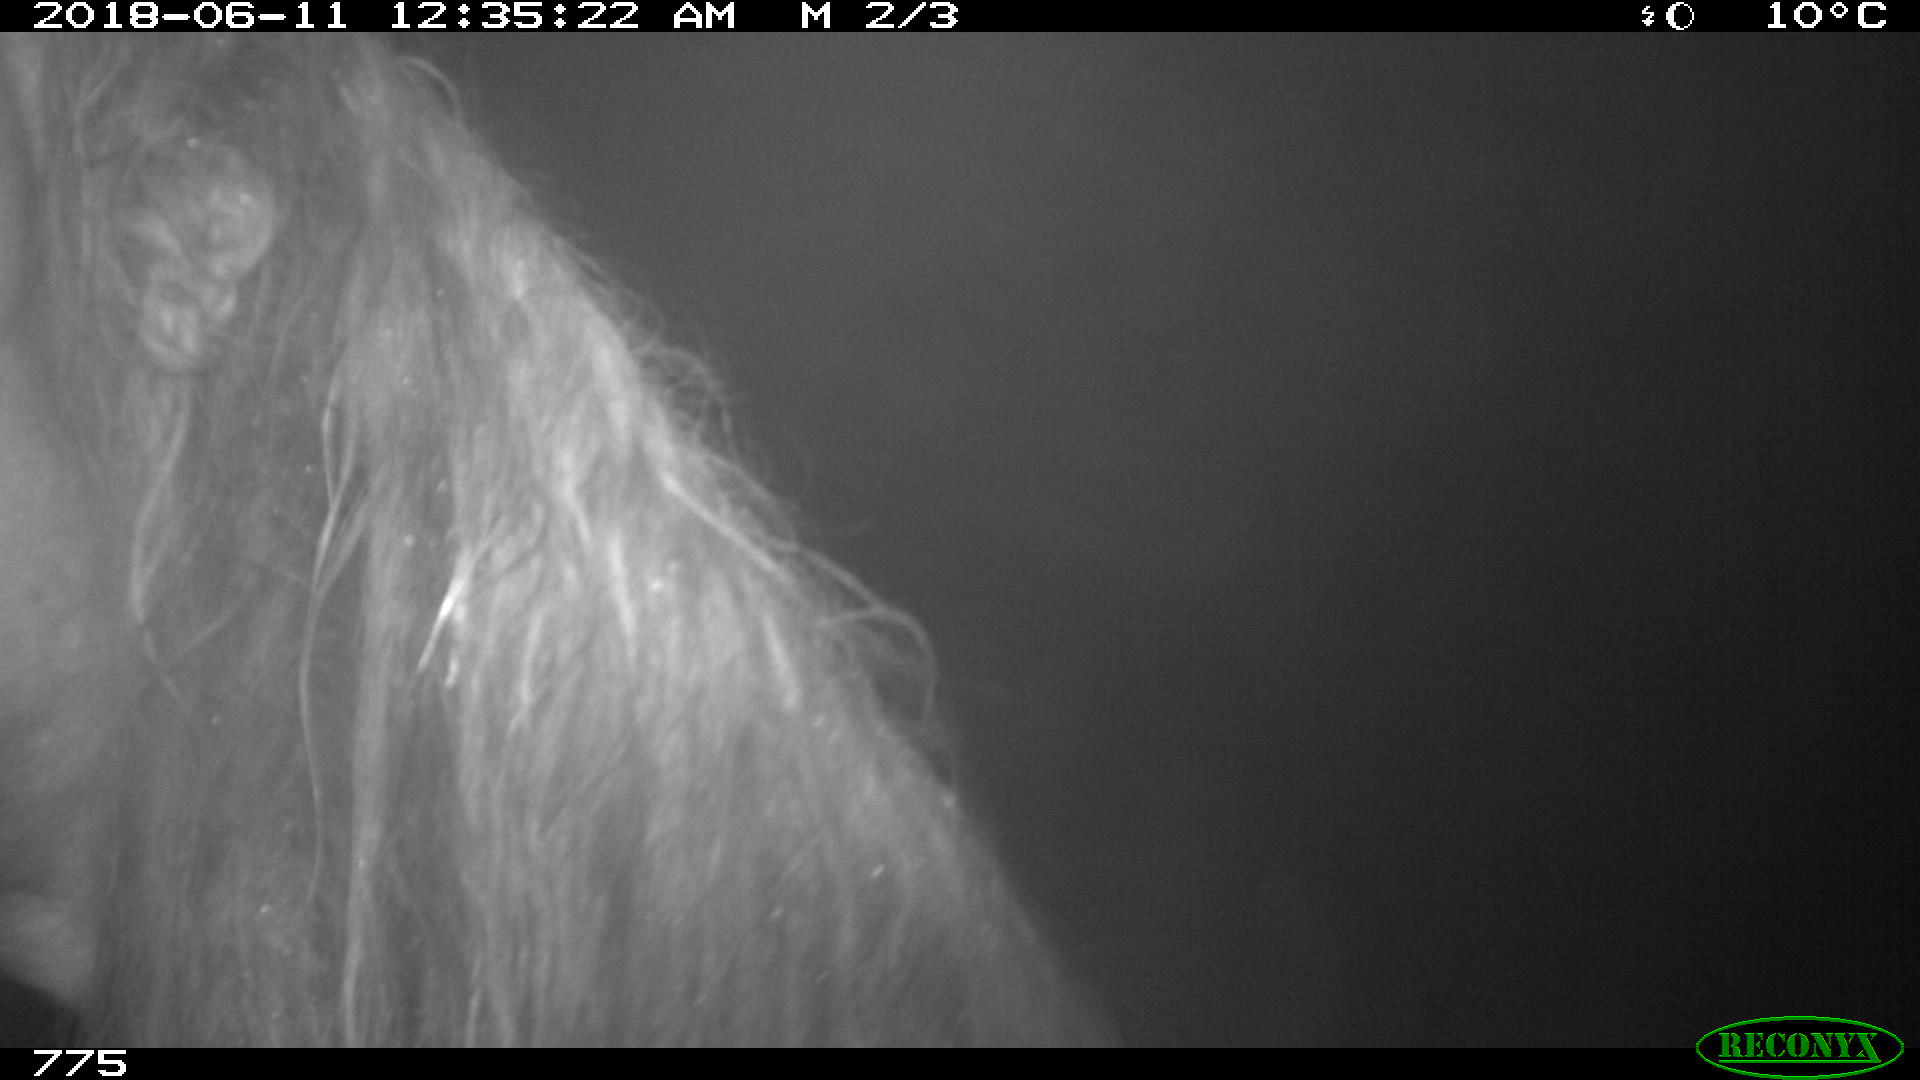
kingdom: Animalia
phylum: Chordata
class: Mammalia
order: Perissodactyla
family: Equidae
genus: Equus
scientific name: Equus caballus
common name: Horse
